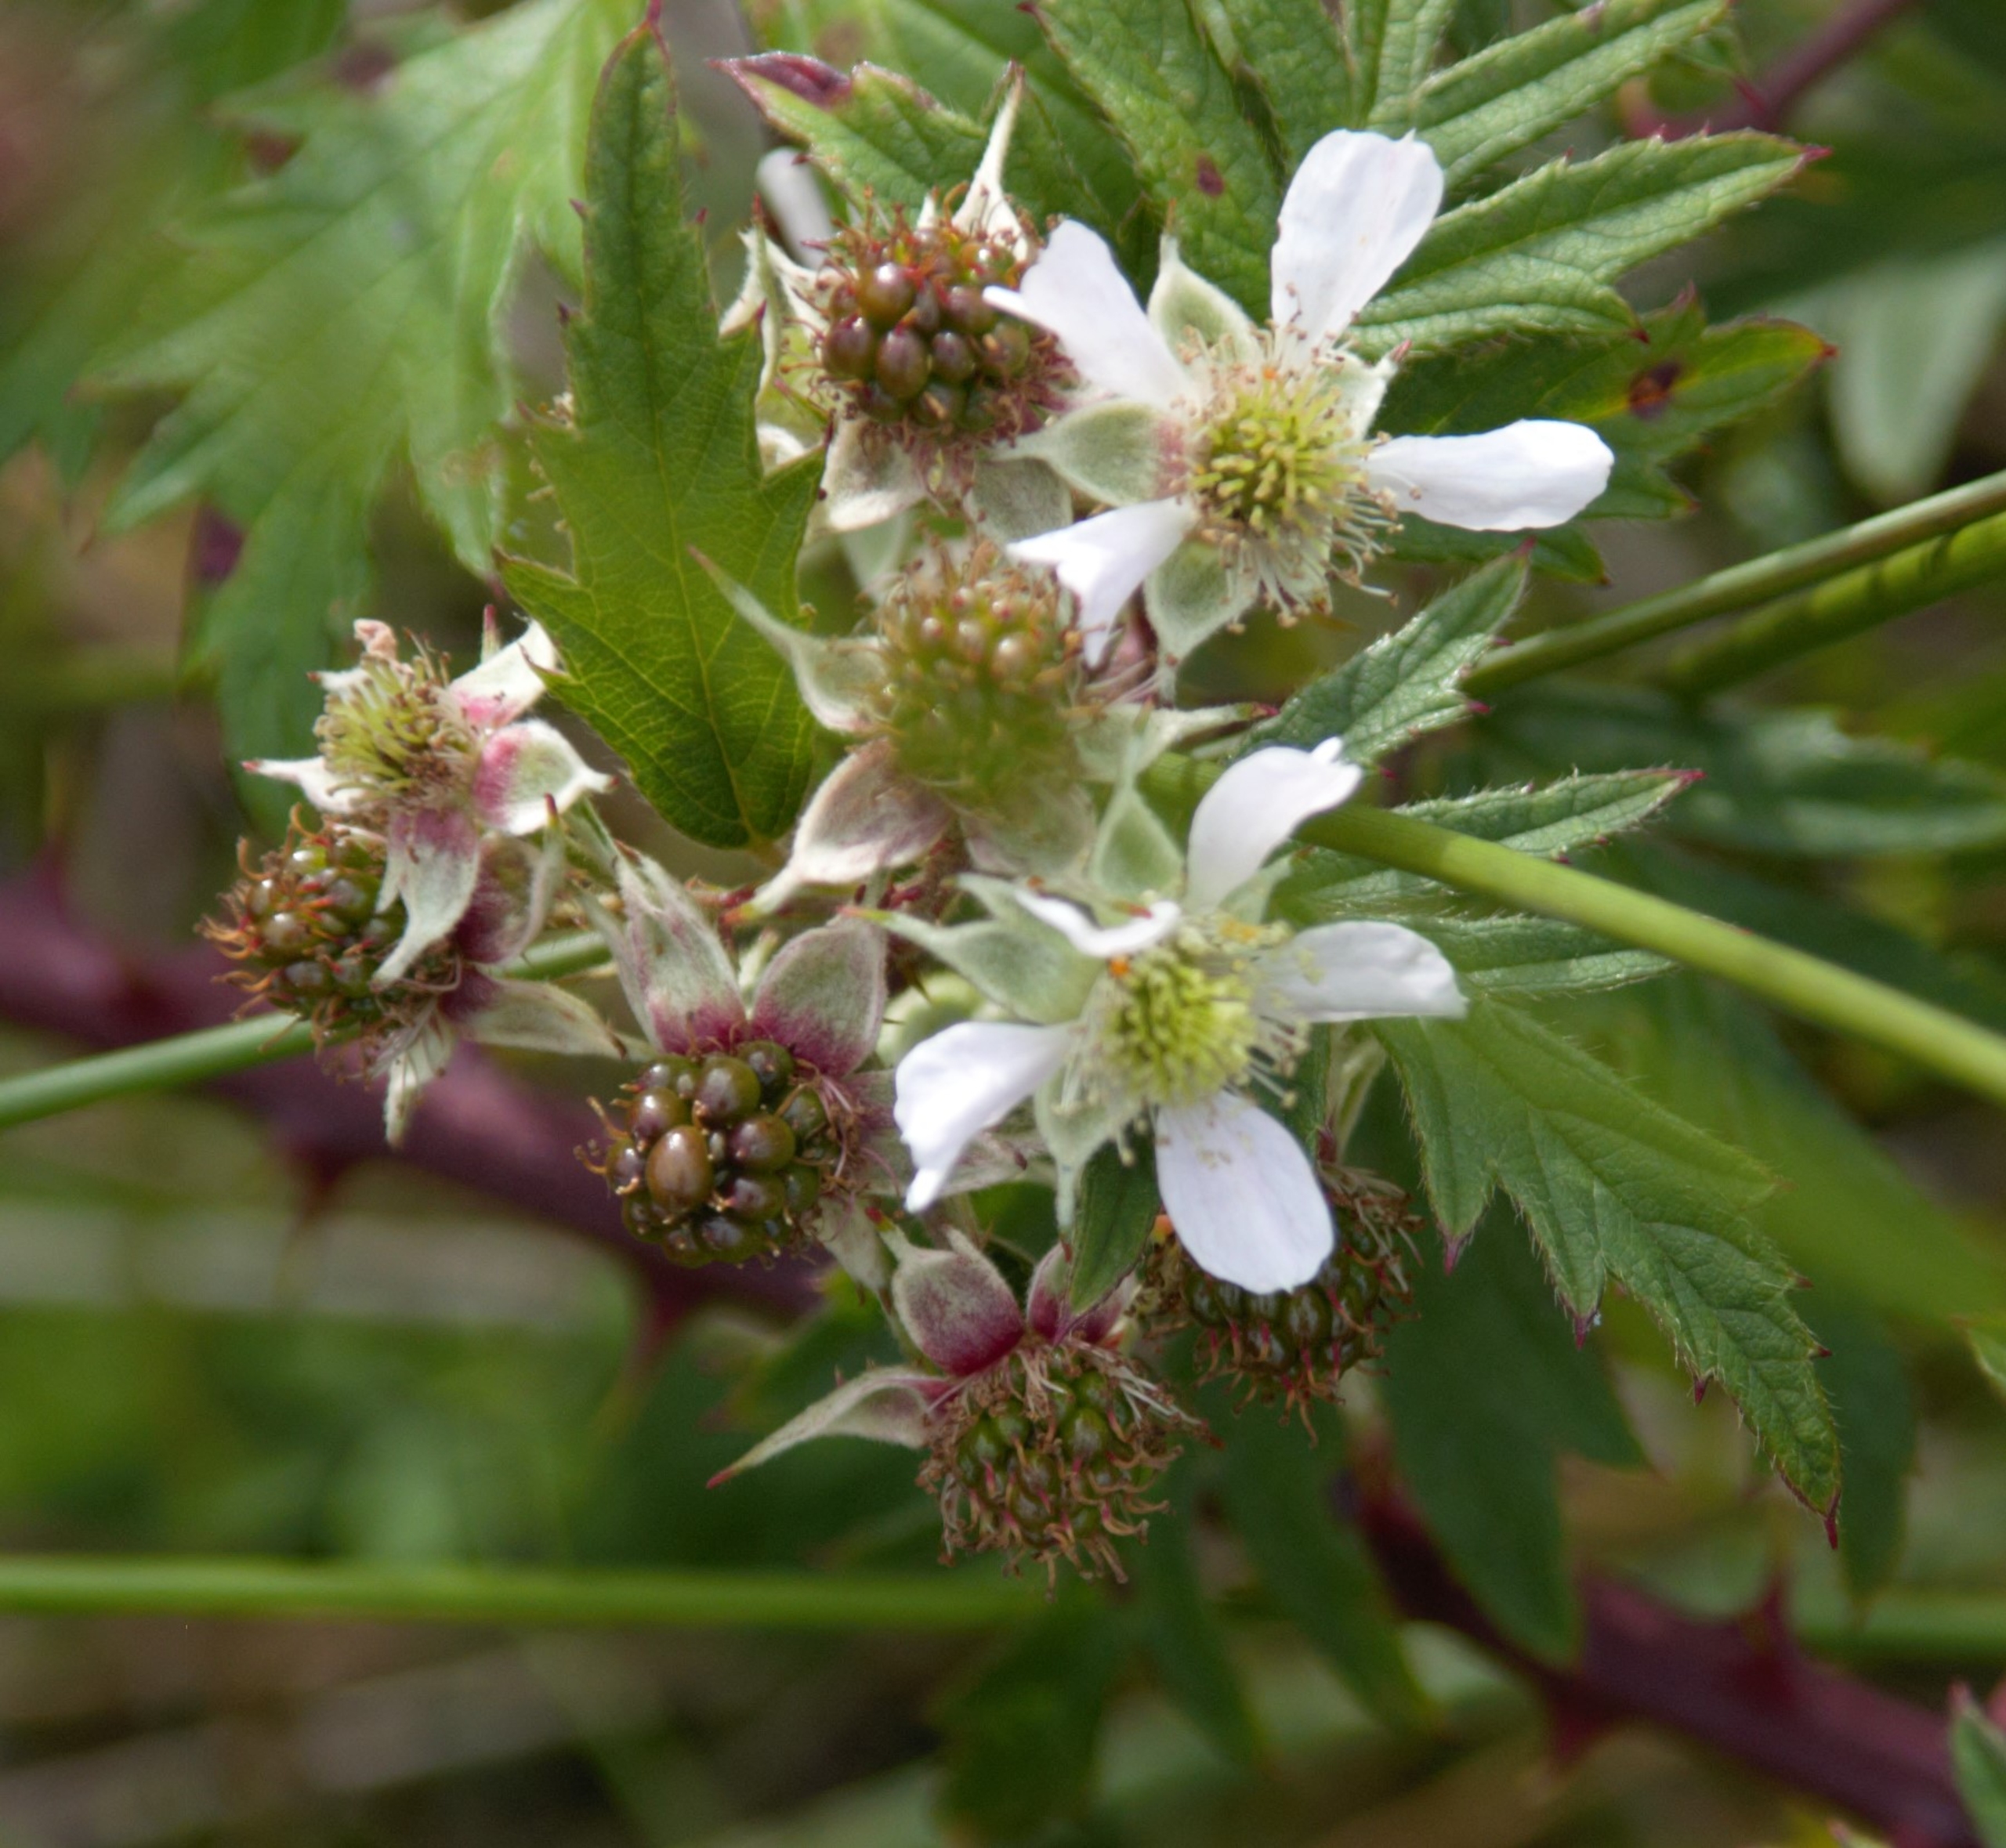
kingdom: Plantae
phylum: Tracheophyta
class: Magnoliopsida
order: Rosales
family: Rosaceae
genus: Rubus
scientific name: Rubus laciniatus
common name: Fliget brombær
